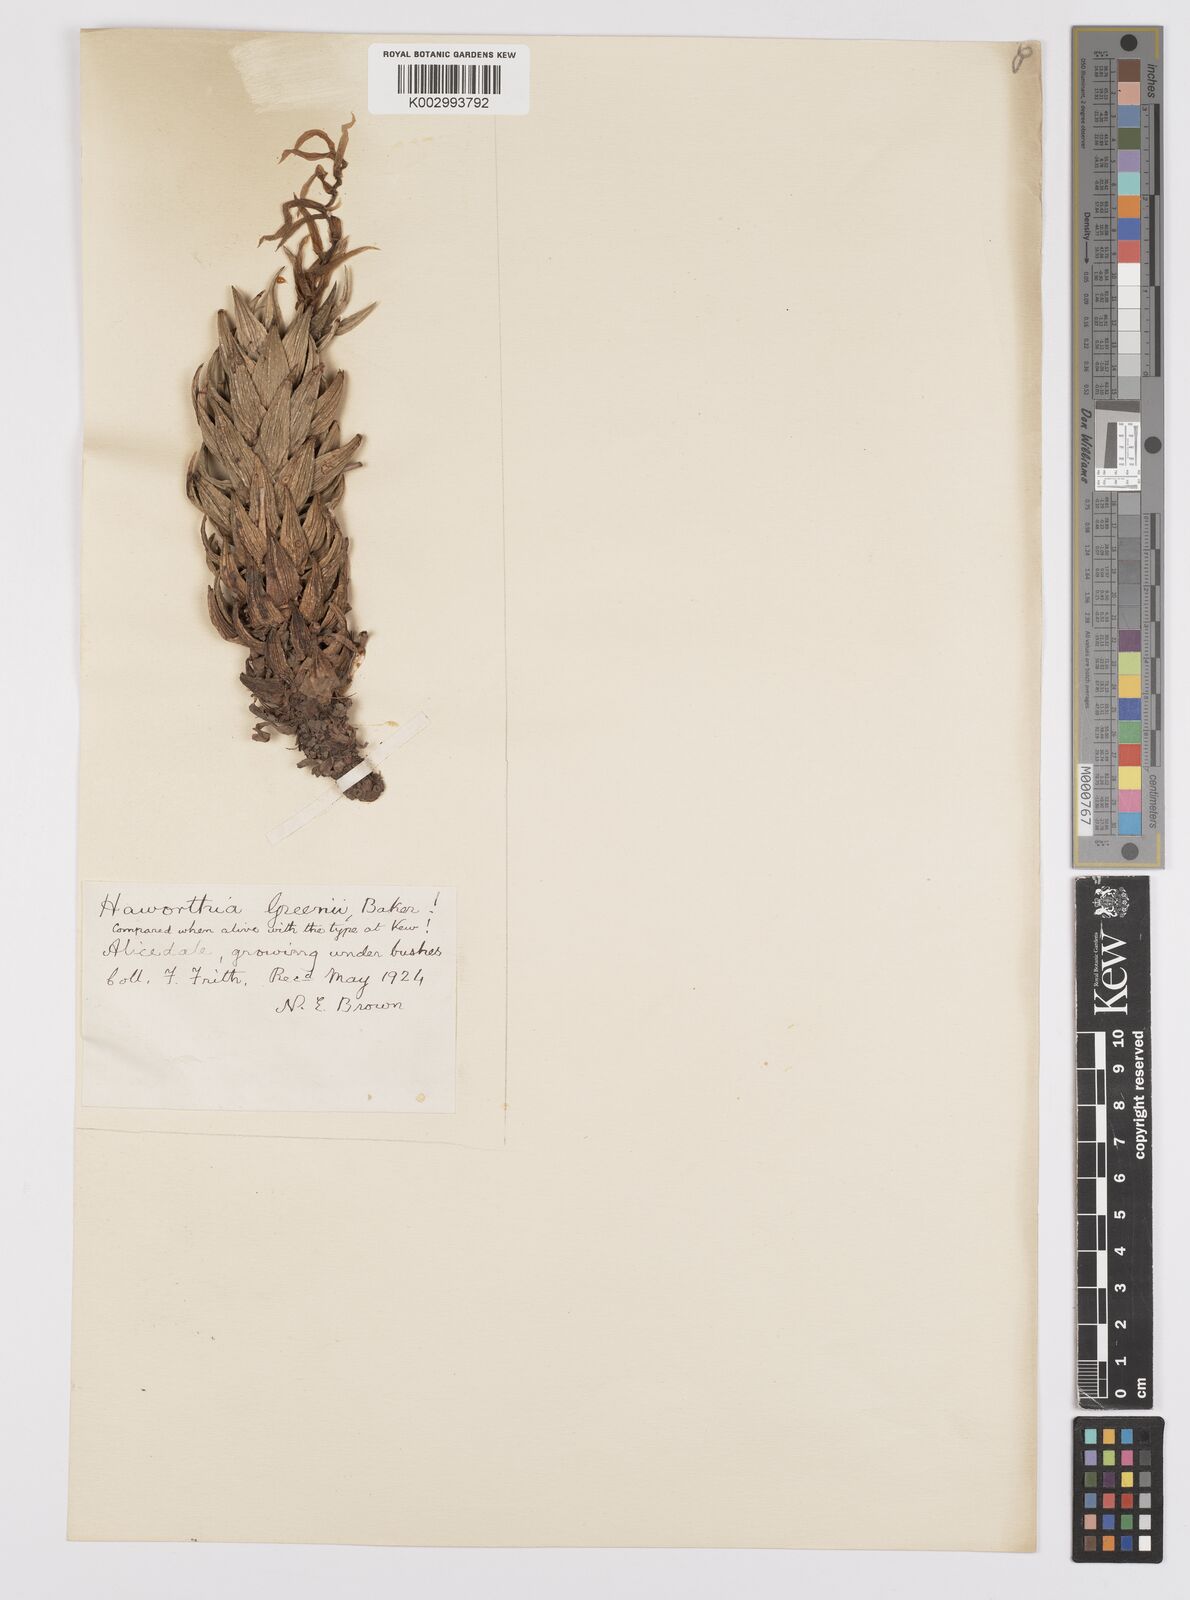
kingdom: Plantae
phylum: Tracheophyta
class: Liliopsida
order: Asparagales
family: Asphodelaceae
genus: Haworthiopsis
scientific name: Haworthiopsis coarctata
